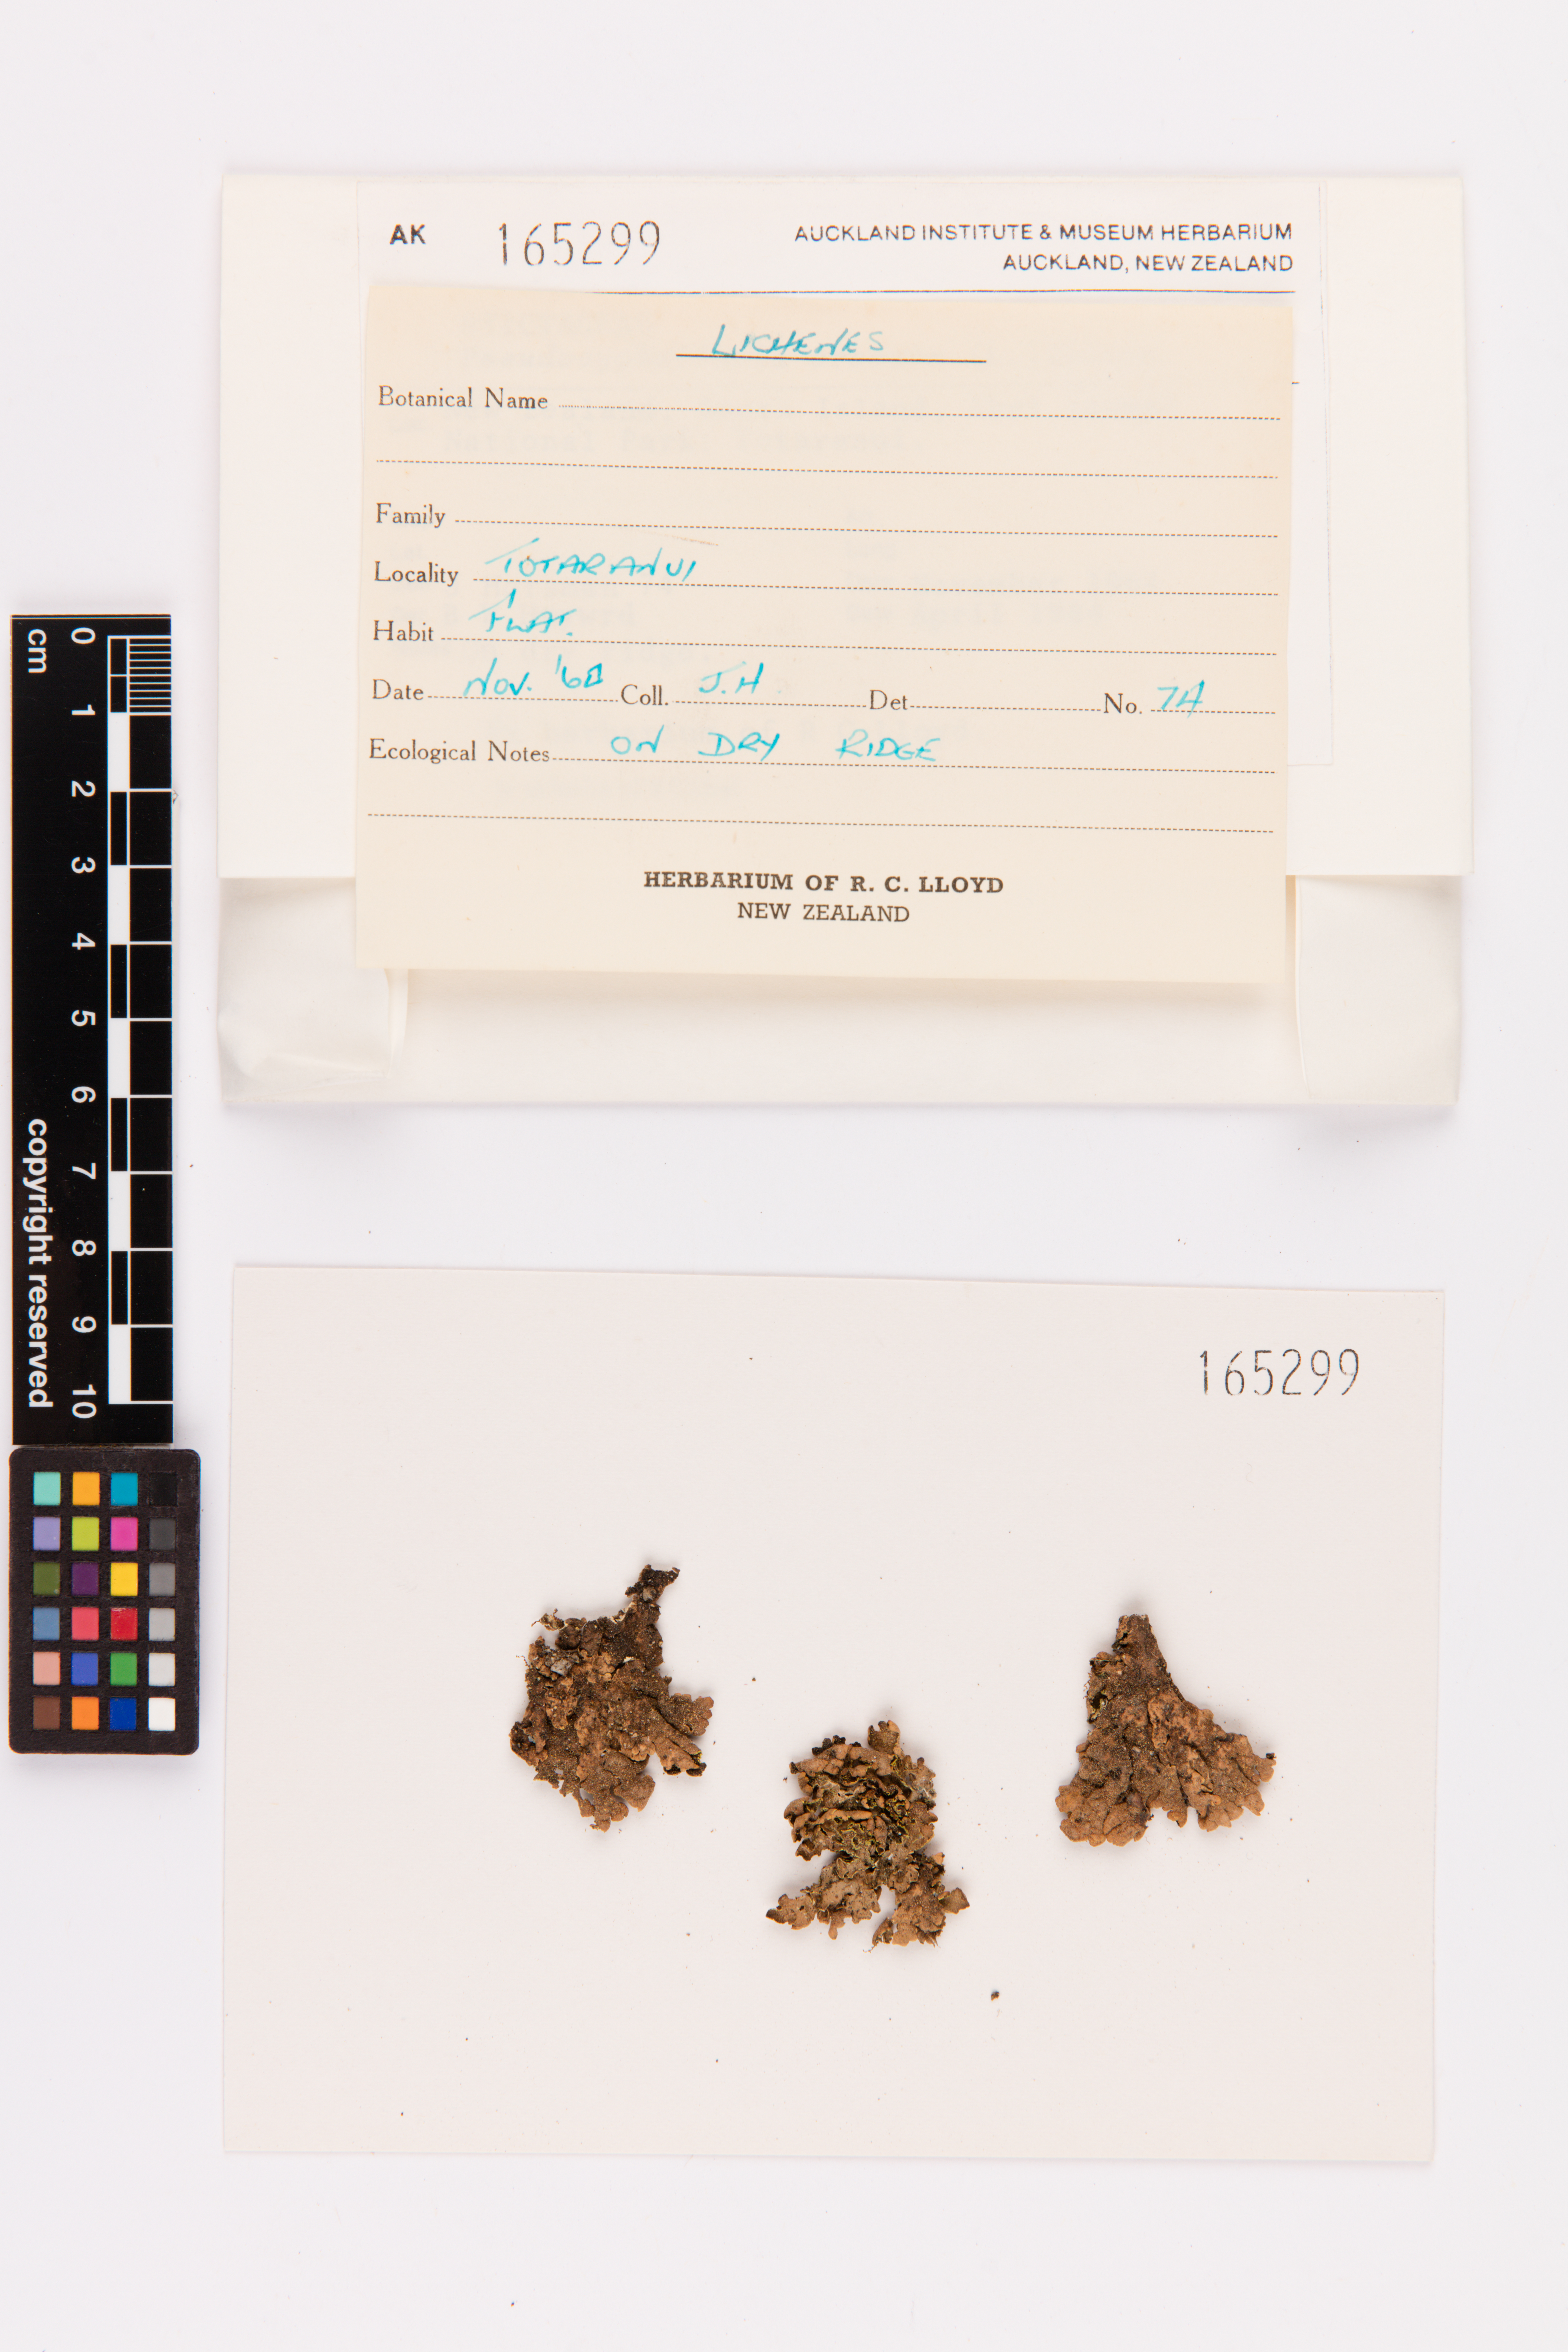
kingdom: Fungi
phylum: Ascomycota
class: Lecanoromycetes
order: Peltigerales
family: Lobariaceae
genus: Pseudocyphellaria
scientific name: Pseudocyphellaria crocata
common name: Golden specklebelly
